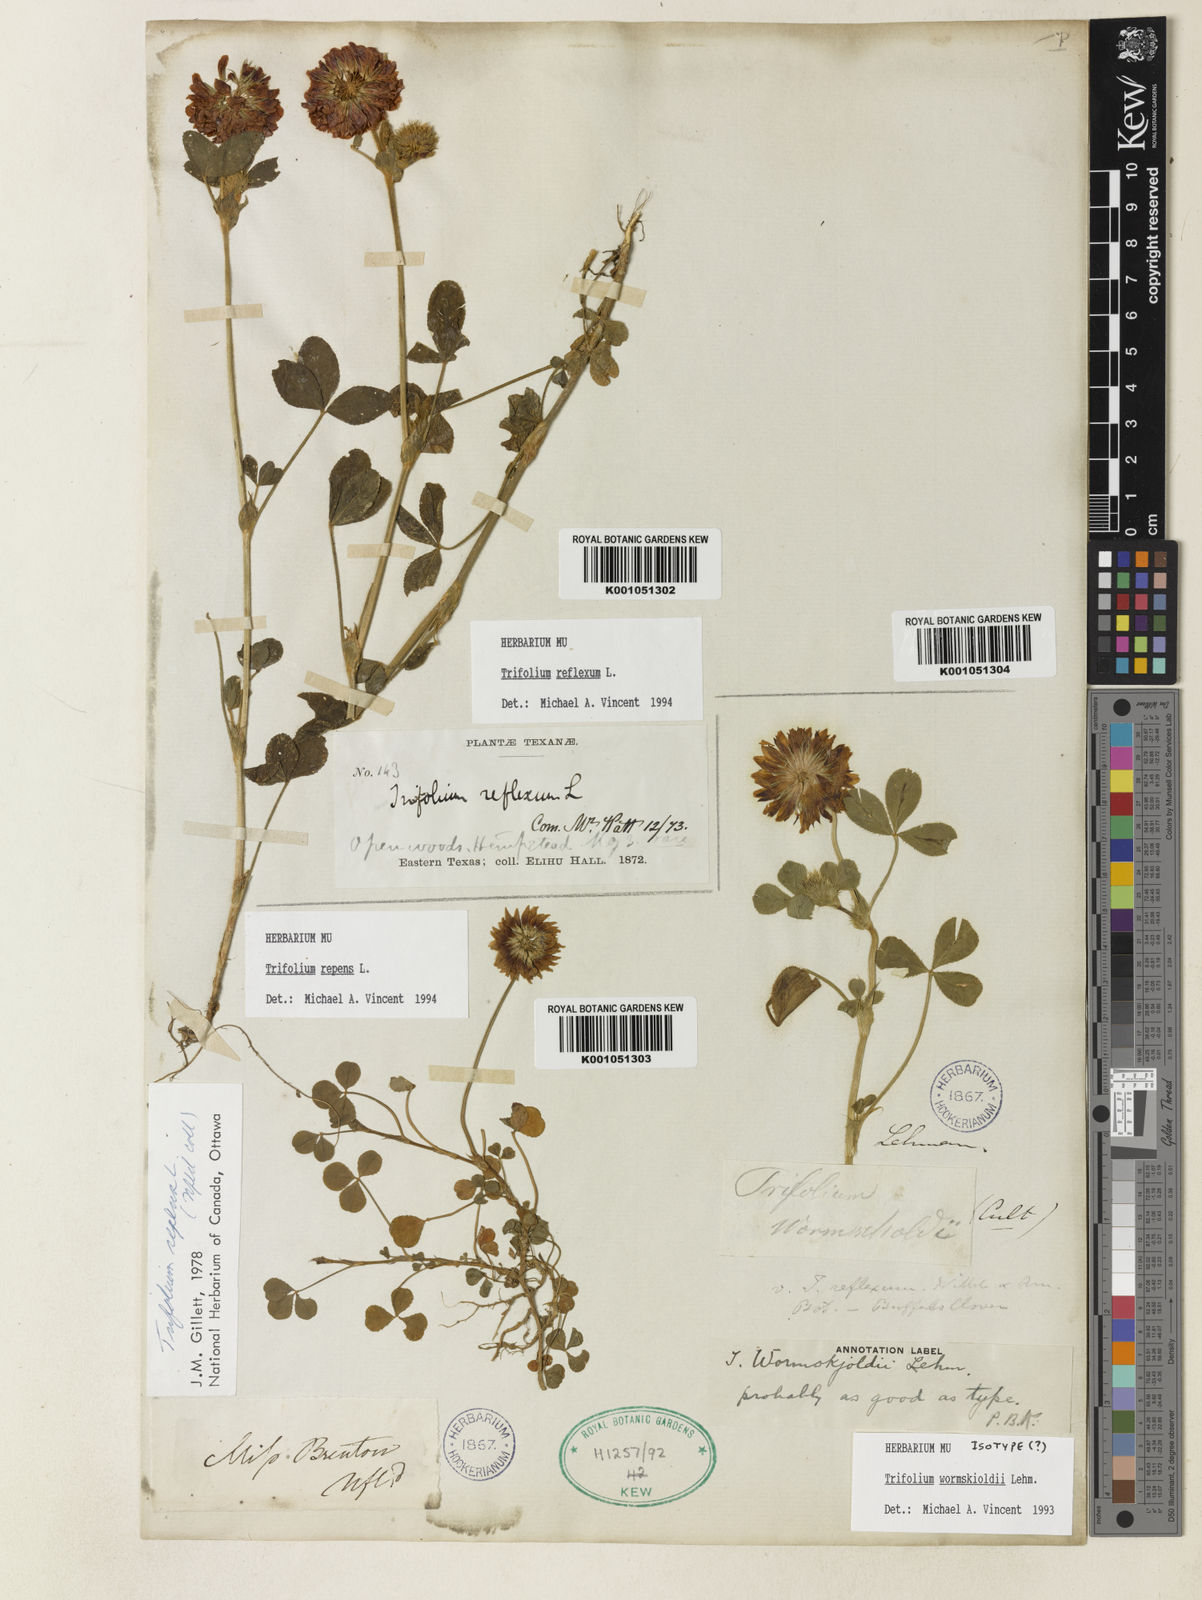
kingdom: Plantae
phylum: Tracheophyta
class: Magnoliopsida
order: Fabales
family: Fabaceae
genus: Trifolium
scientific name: Trifolium willdenovii
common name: Tomcat clover
